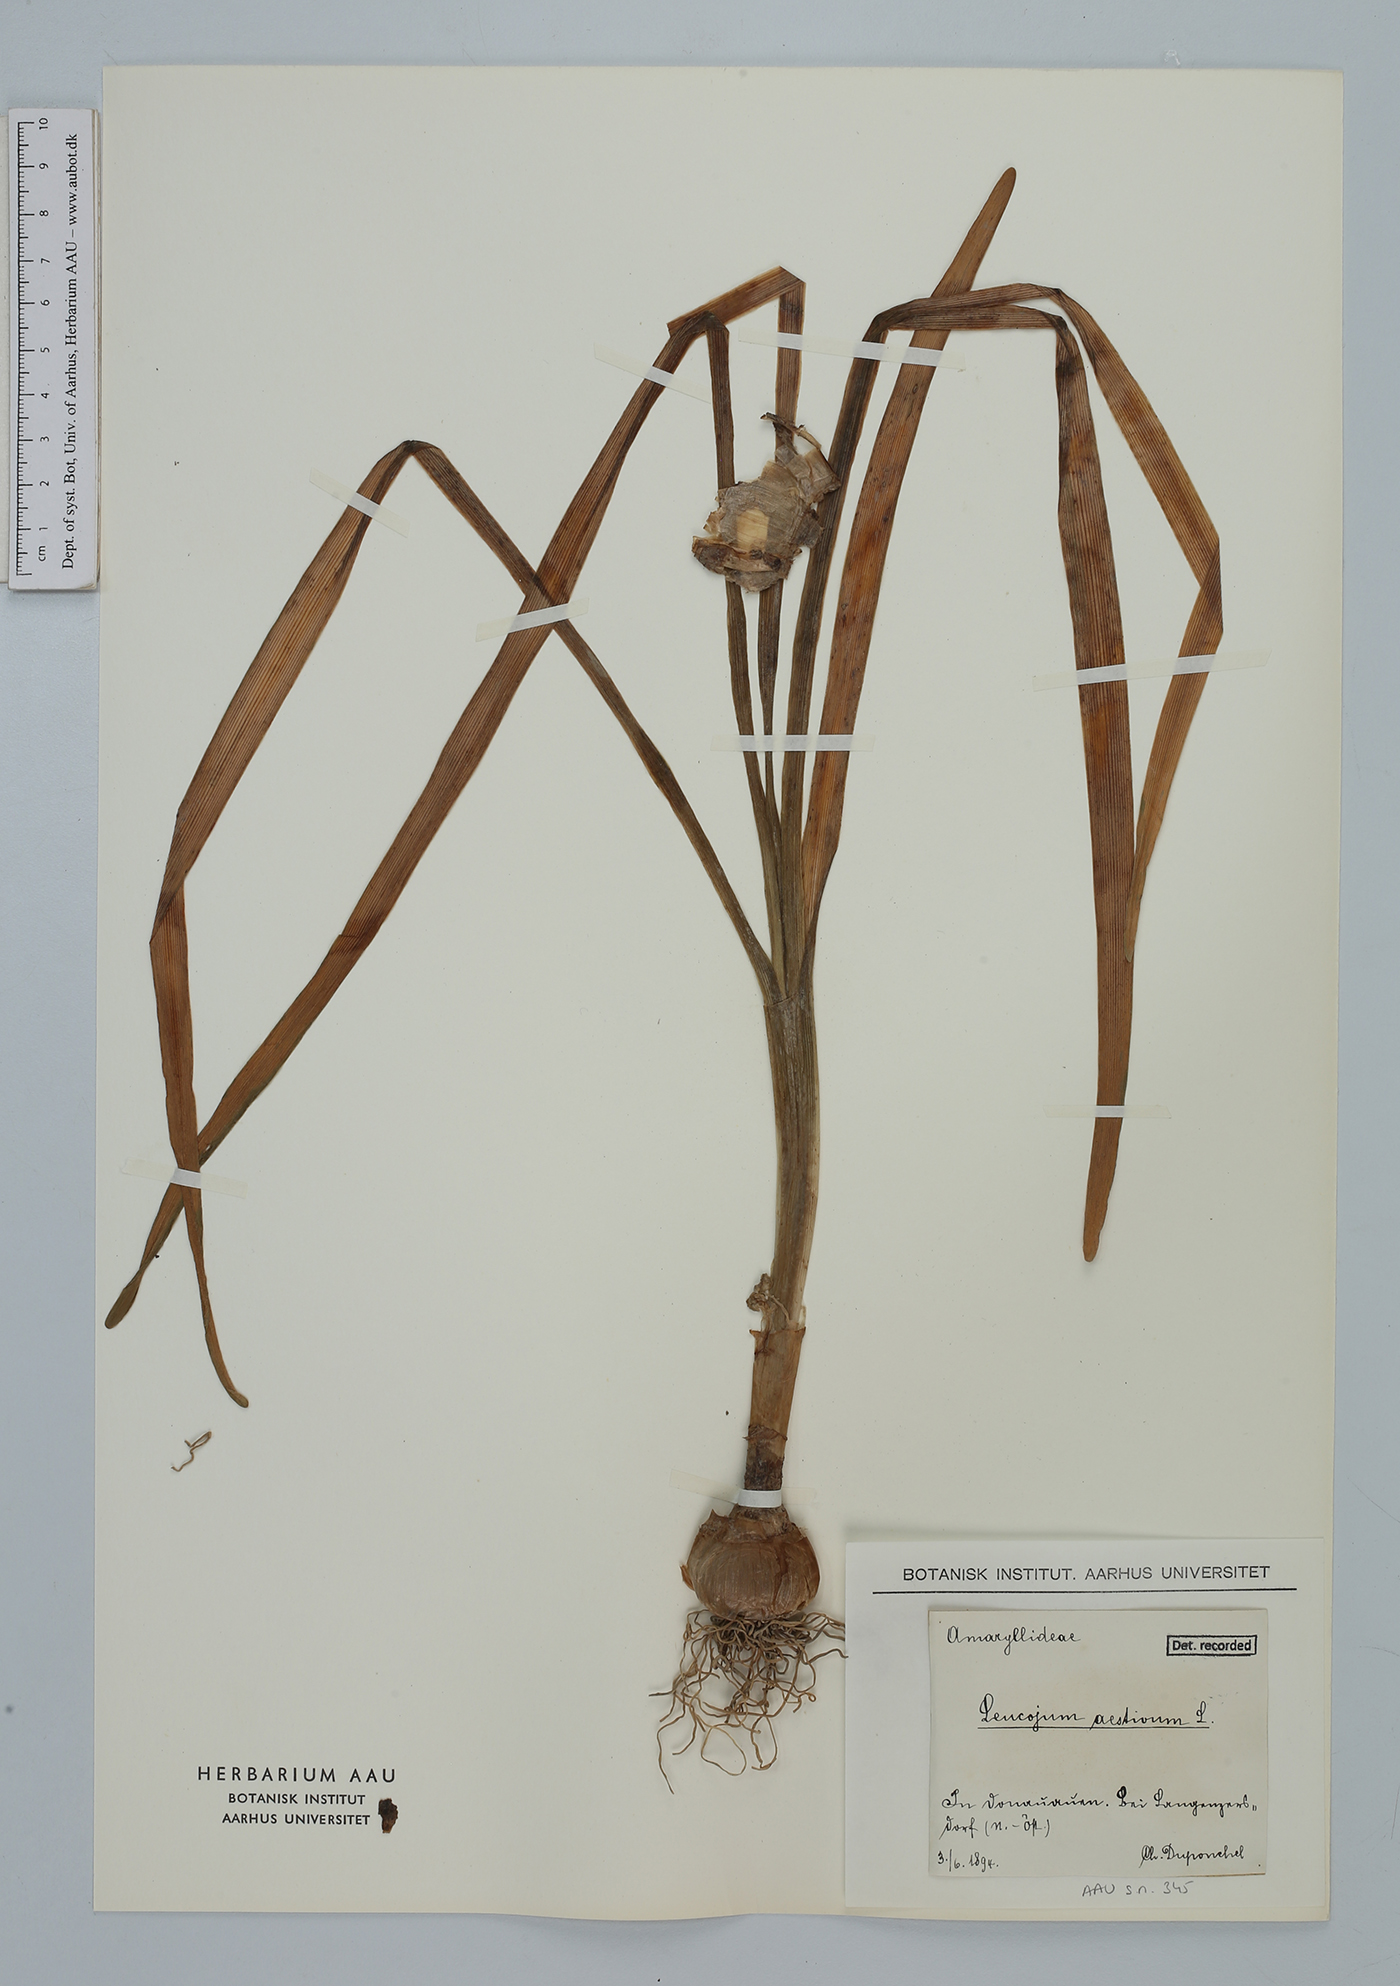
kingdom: Plantae
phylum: Tracheophyta
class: Liliopsida
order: Asparagales
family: Amaryllidaceae
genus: Leucojum
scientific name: Leucojum aestivum
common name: Summer snowflake
